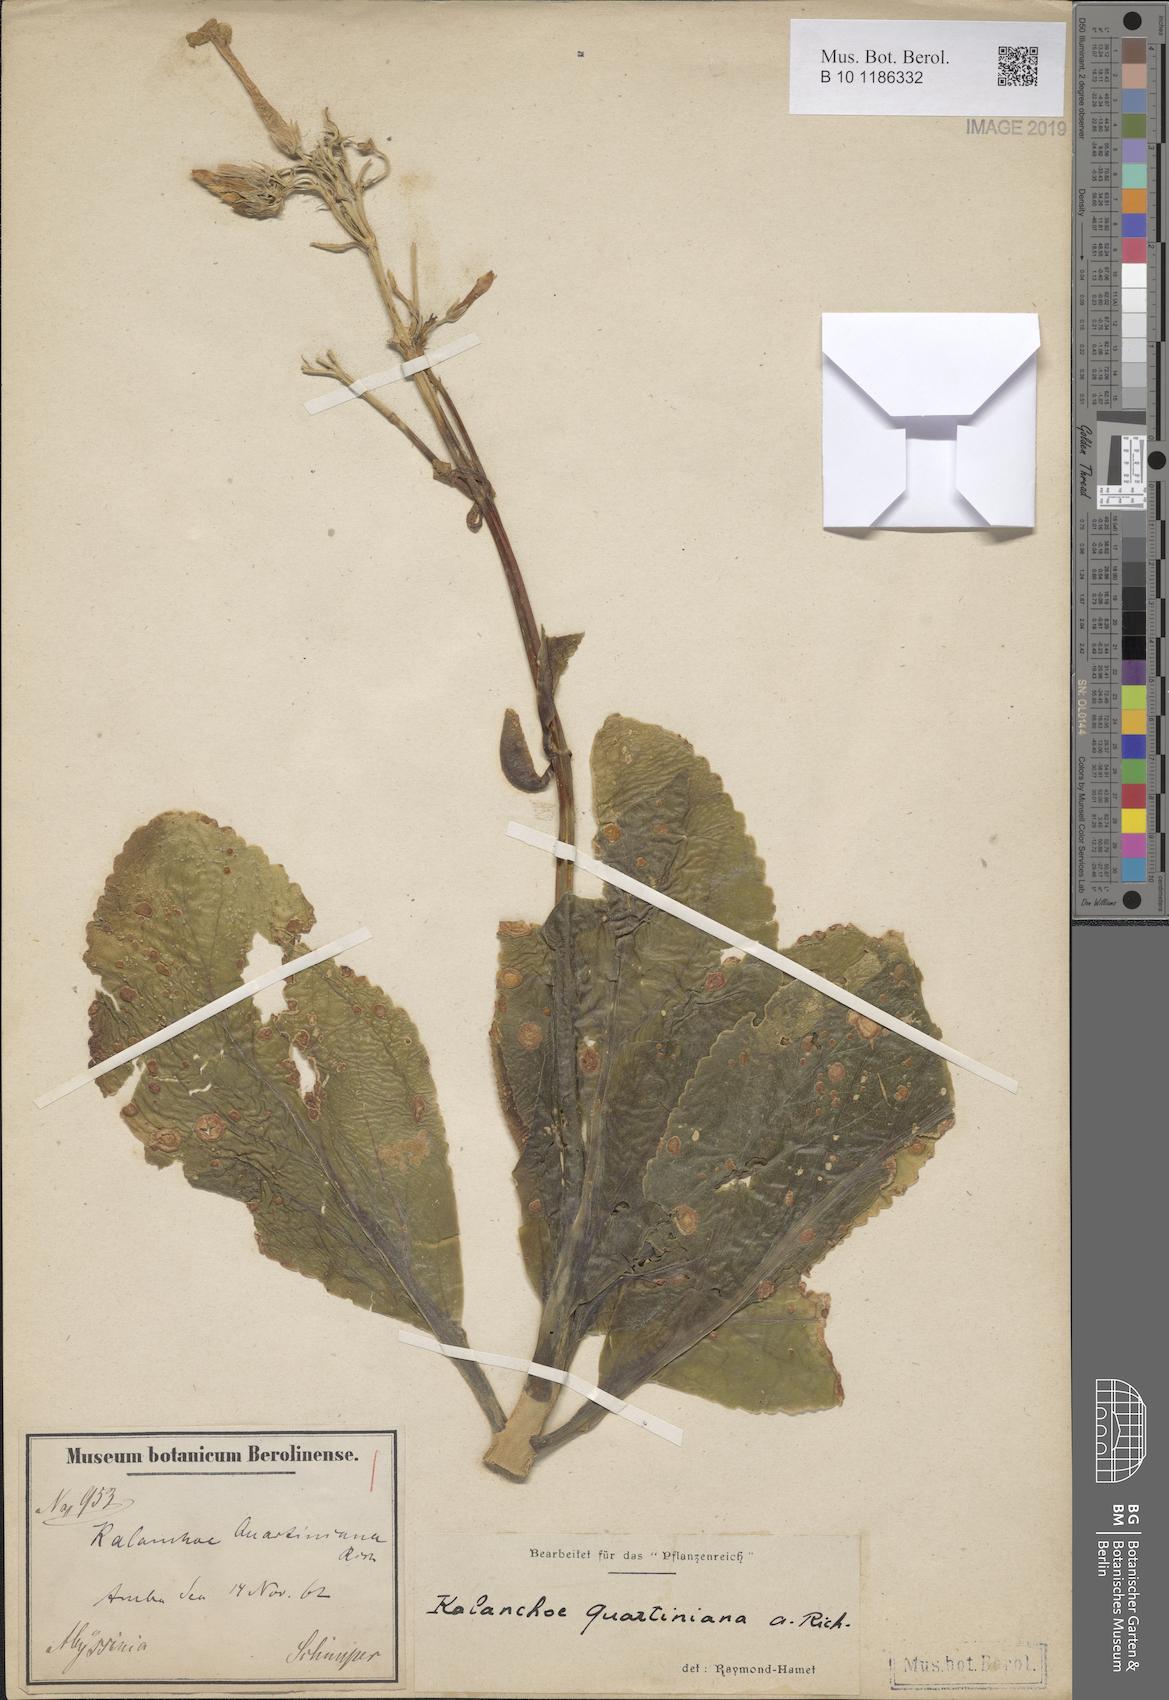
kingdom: Plantae
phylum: Tracheophyta
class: Magnoliopsida
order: Saxifragales
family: Crassulaceae
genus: Kalanchoe
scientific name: Kalanchoe quartiniana
